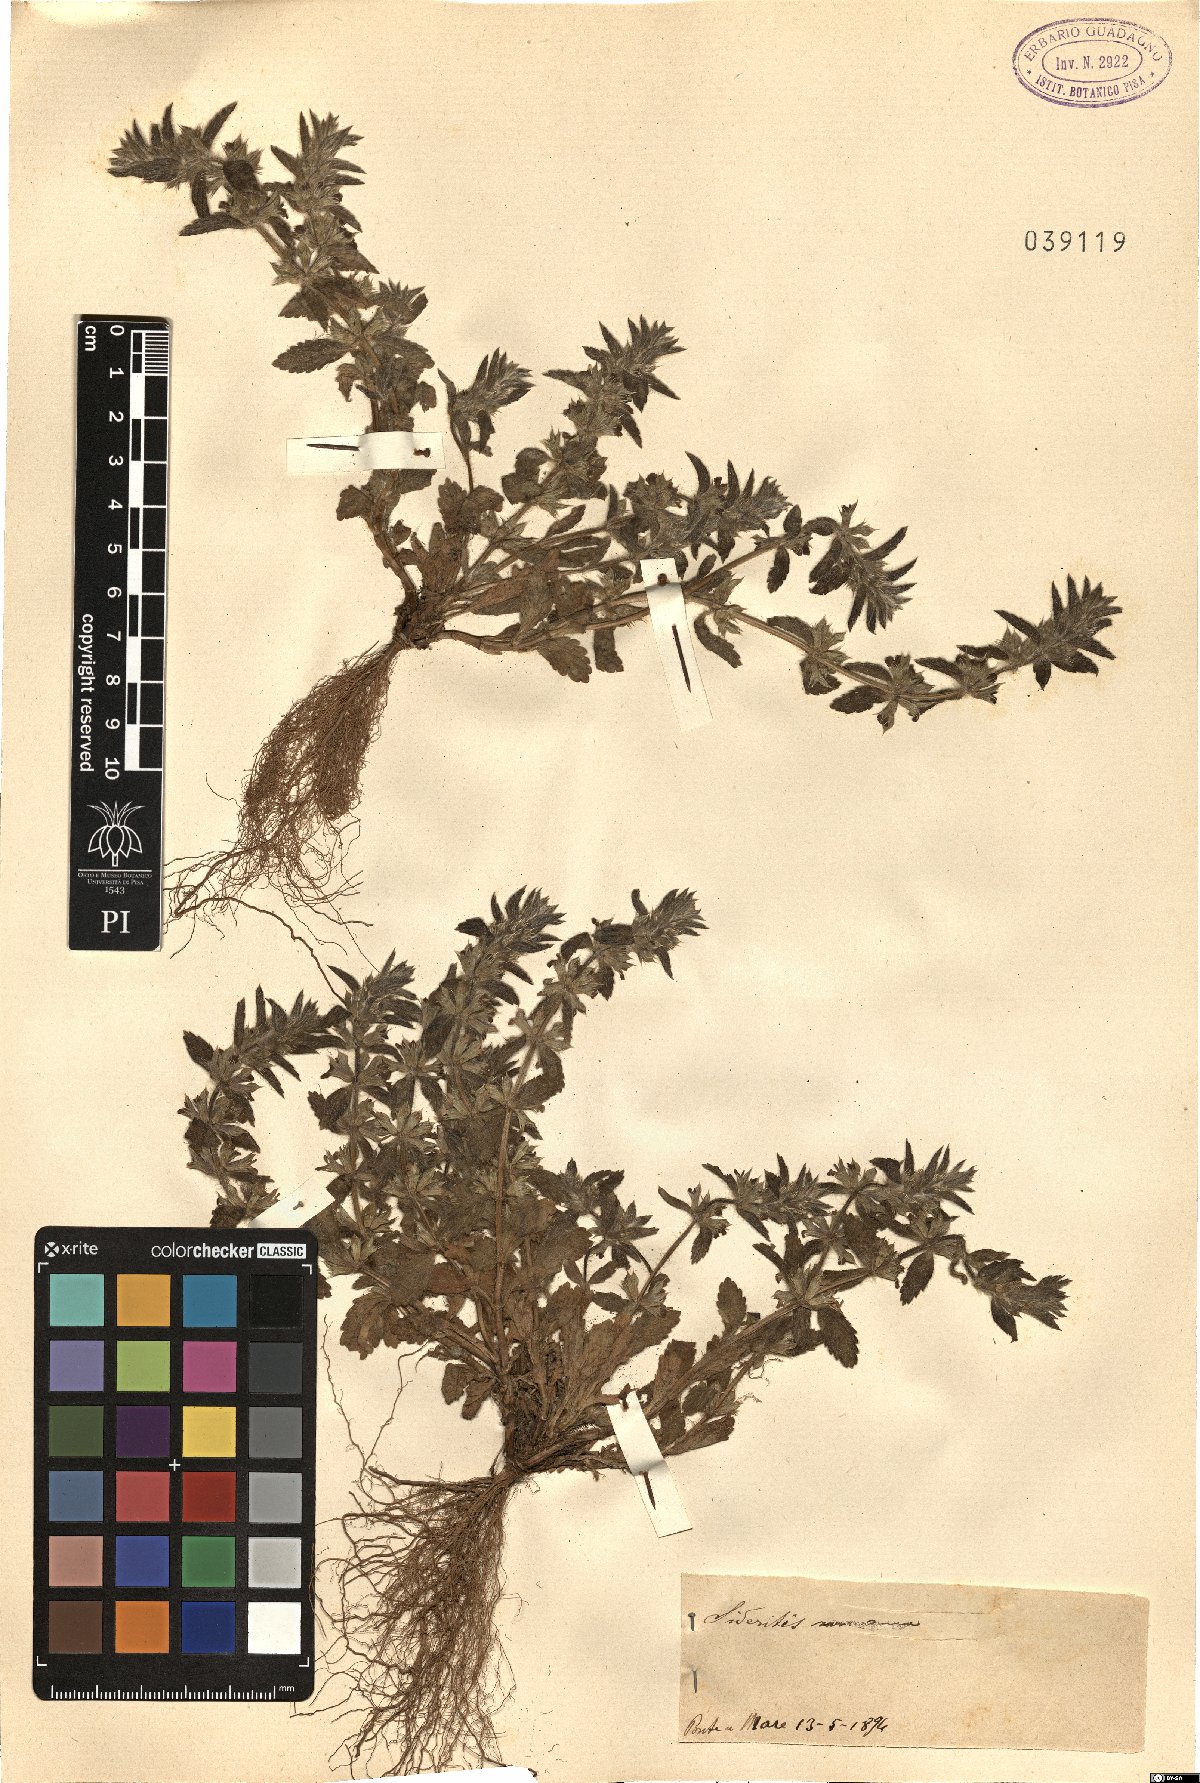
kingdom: Plantae
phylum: Tracheophyta
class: Magnoliopsida
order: Lamiales
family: Lamiaceae
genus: Sideritis
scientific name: Sideritis romana
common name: Simplebeak ironwort
